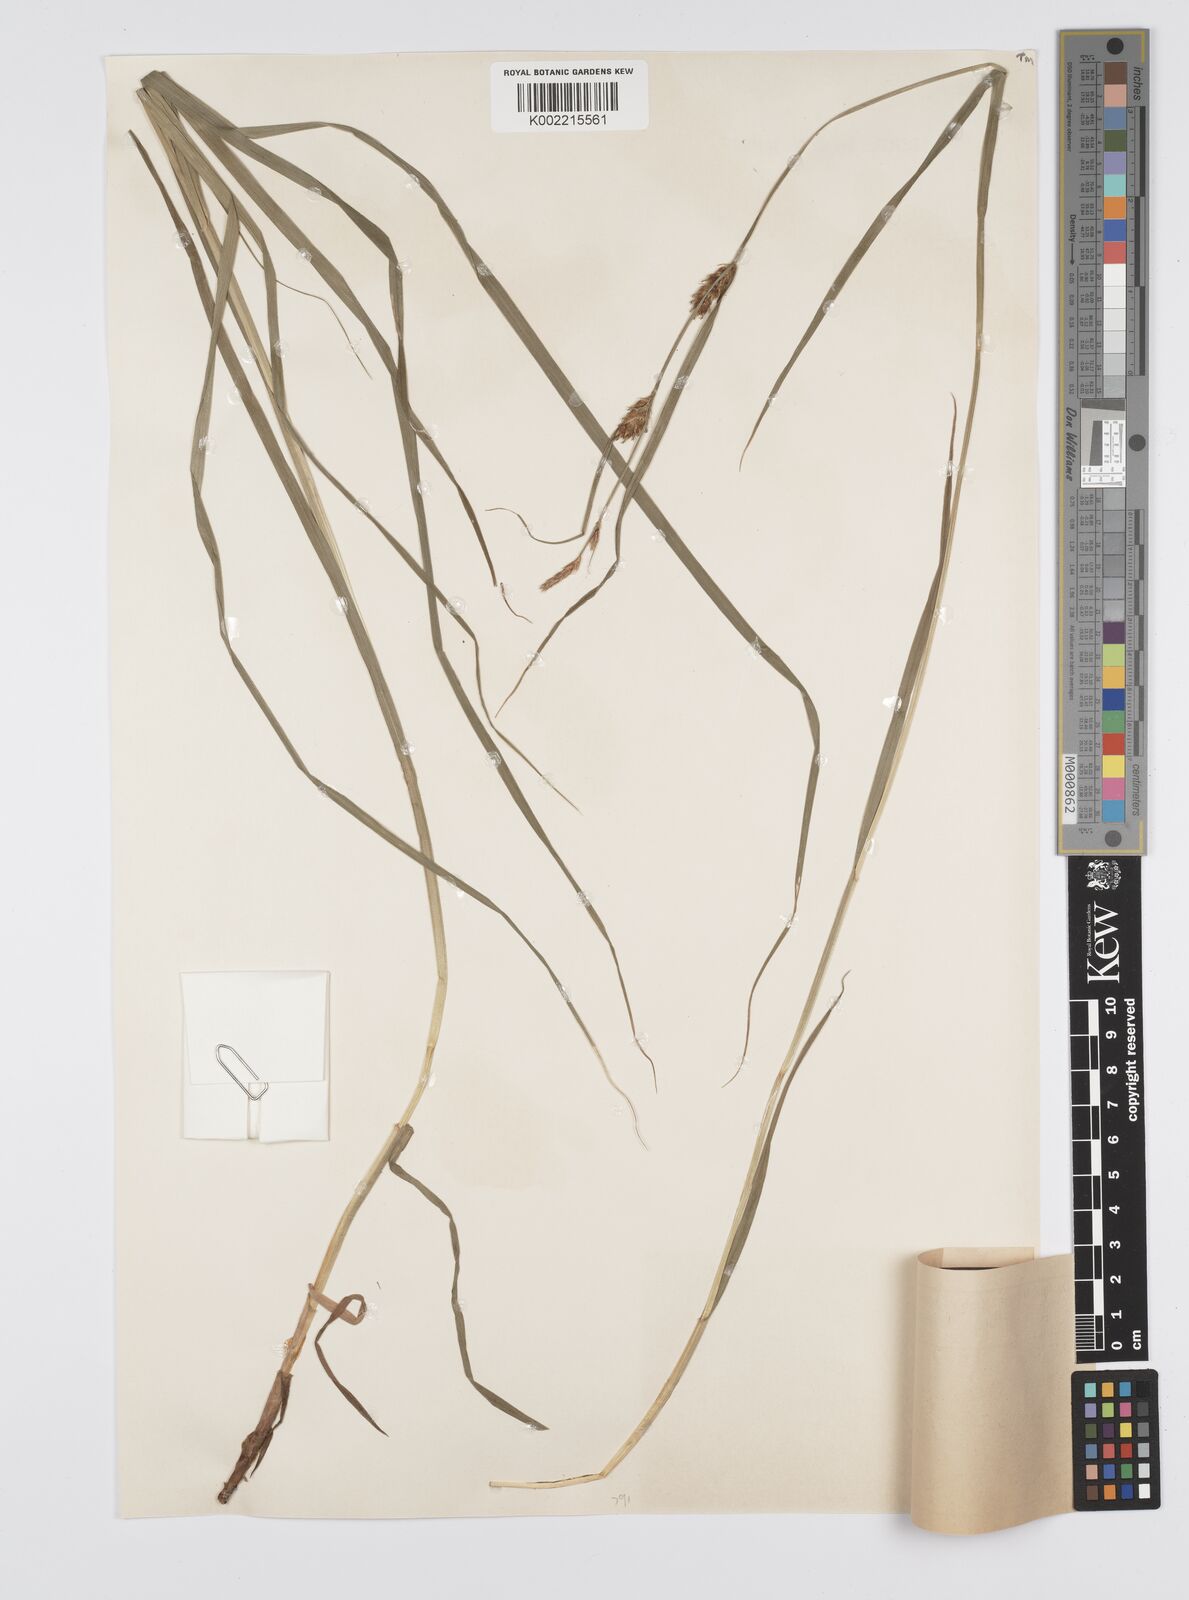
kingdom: Plantae
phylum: Tracheophyta
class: Liliopsida
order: Poales
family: Cyperaceae
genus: Carex
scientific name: Carex hirta
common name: Hairy sedge
